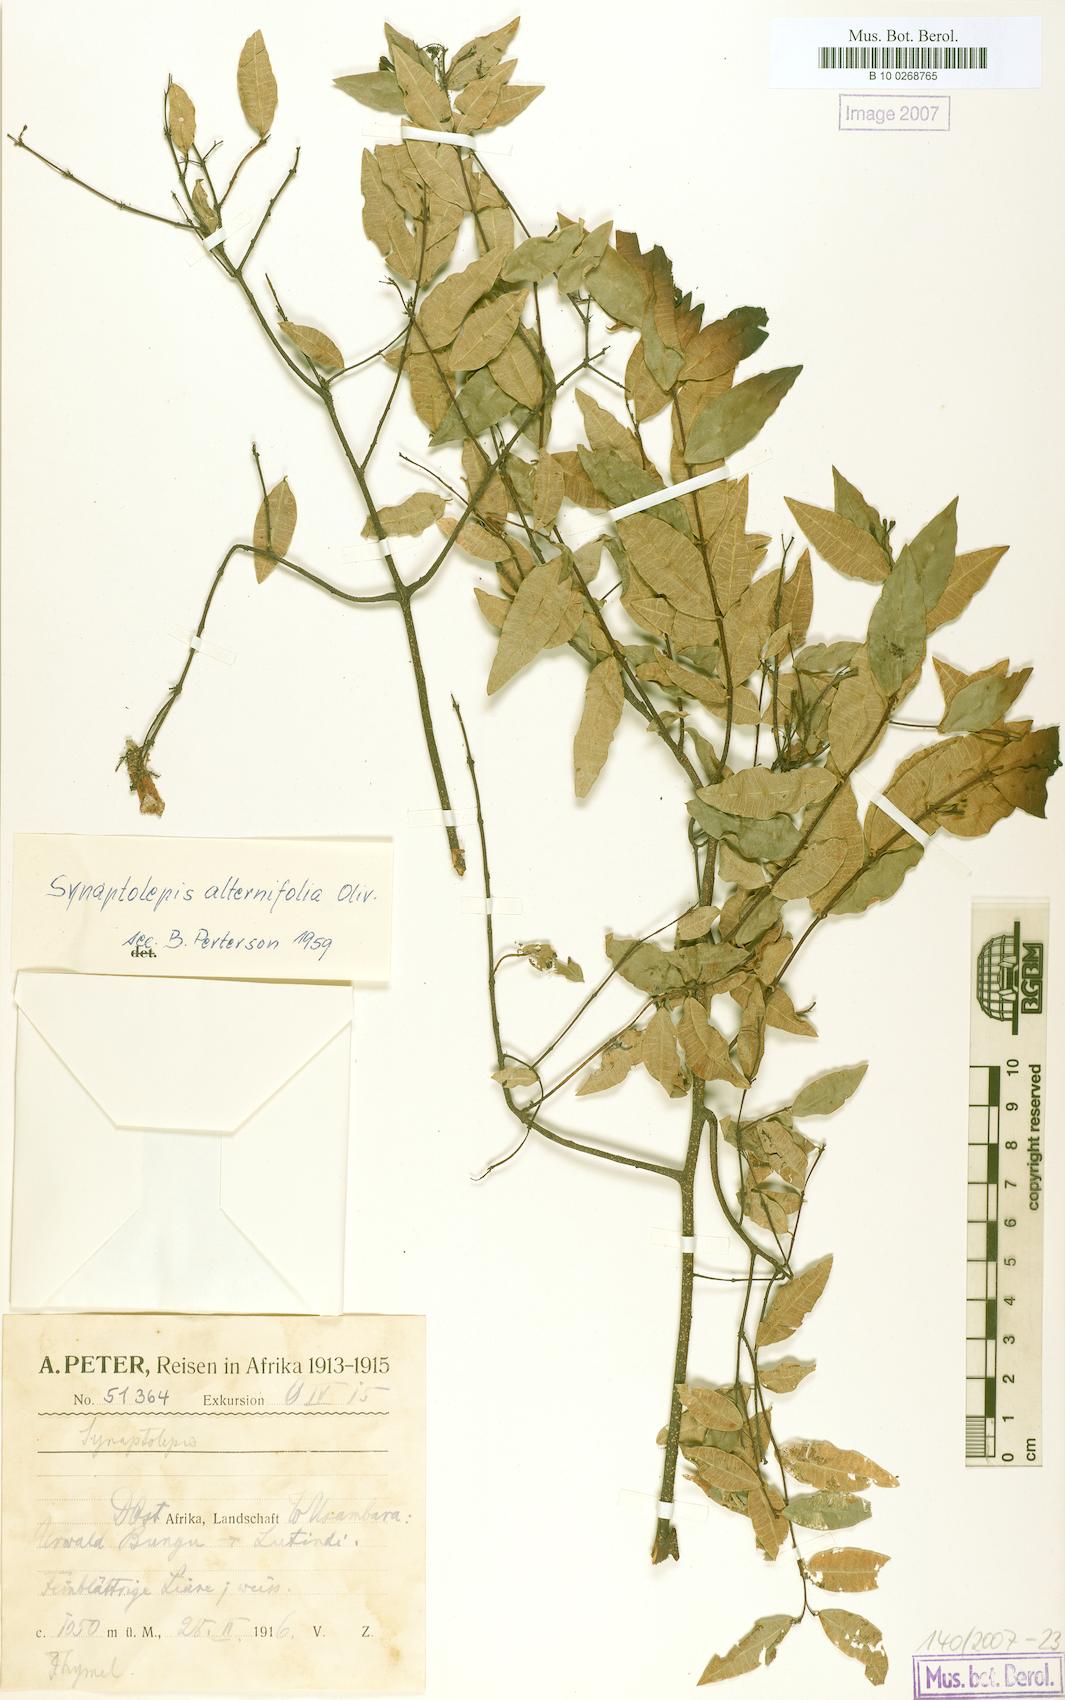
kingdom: Plantae
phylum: Tracheophyta
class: Magnoliopsida
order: Malvales
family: Thymelaeaceae
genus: Synaptolepis
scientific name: Synaptolepis alternifolia
